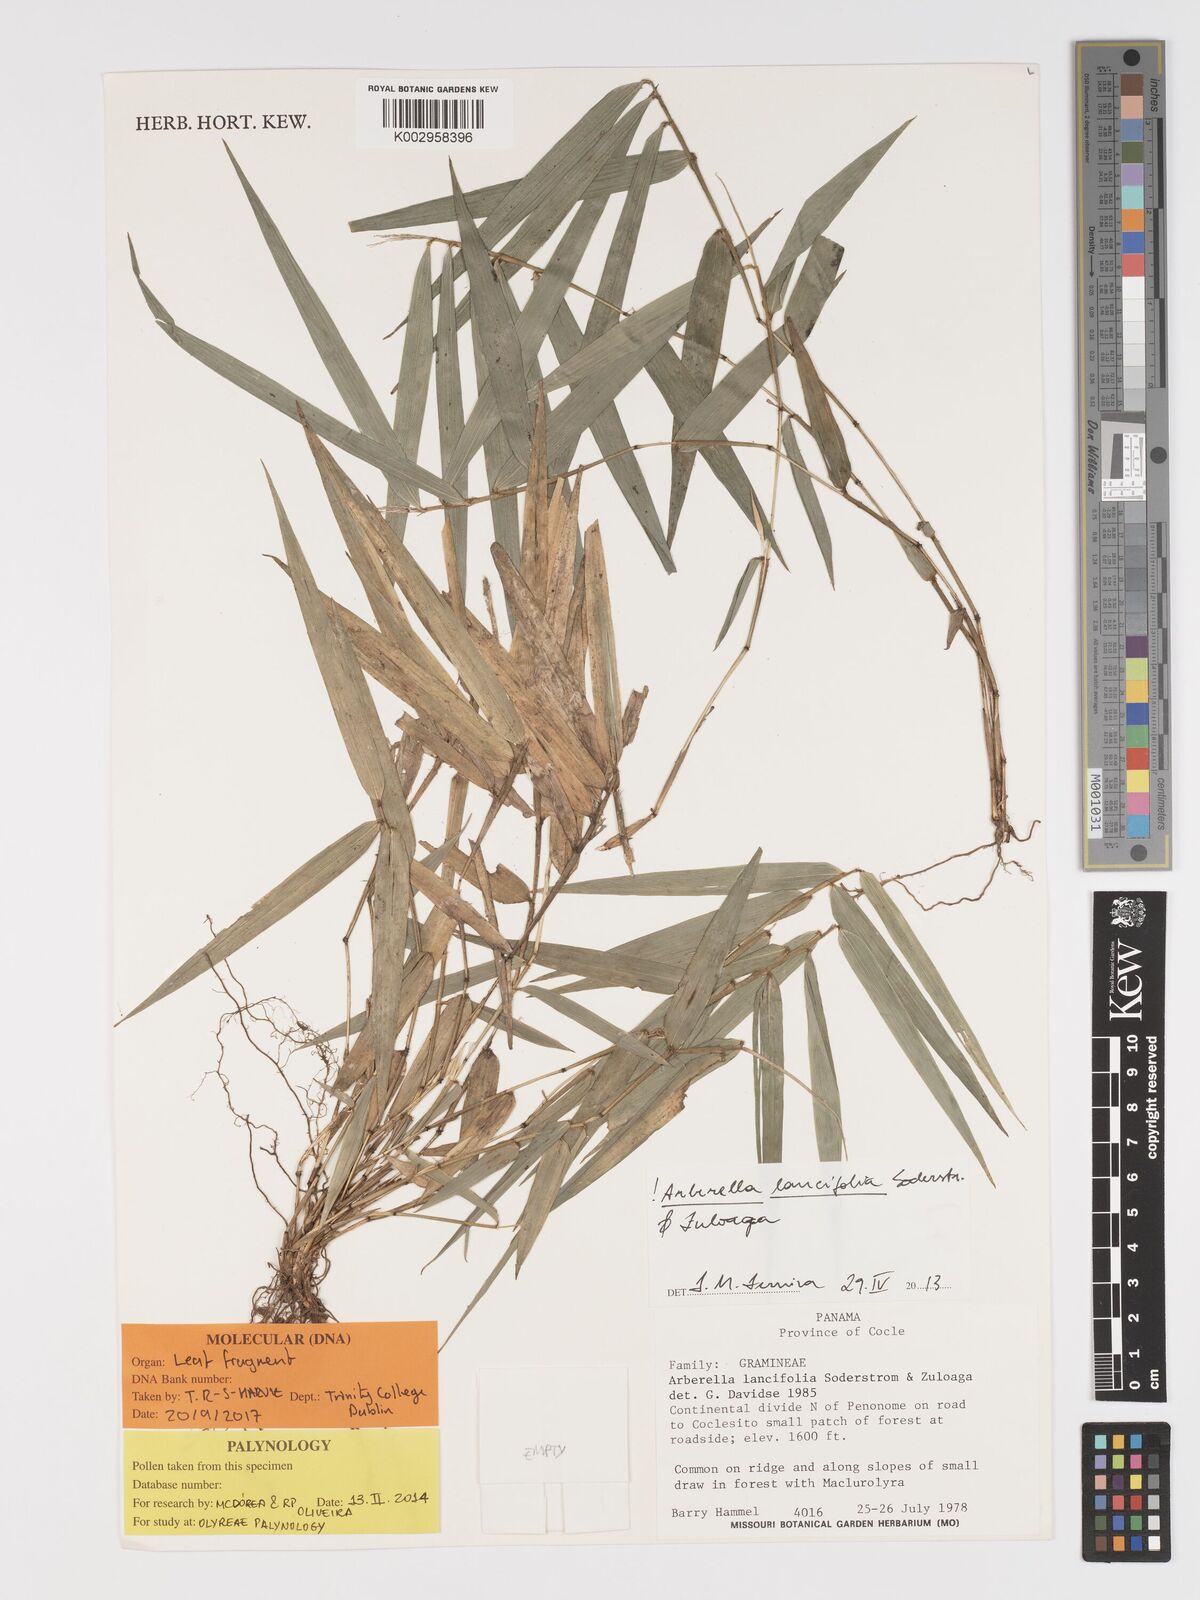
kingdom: Plantae
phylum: Tracheophyta
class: Liliopsida
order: Poales
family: Poaceae
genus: Arberella
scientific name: Arberella lancifolia
